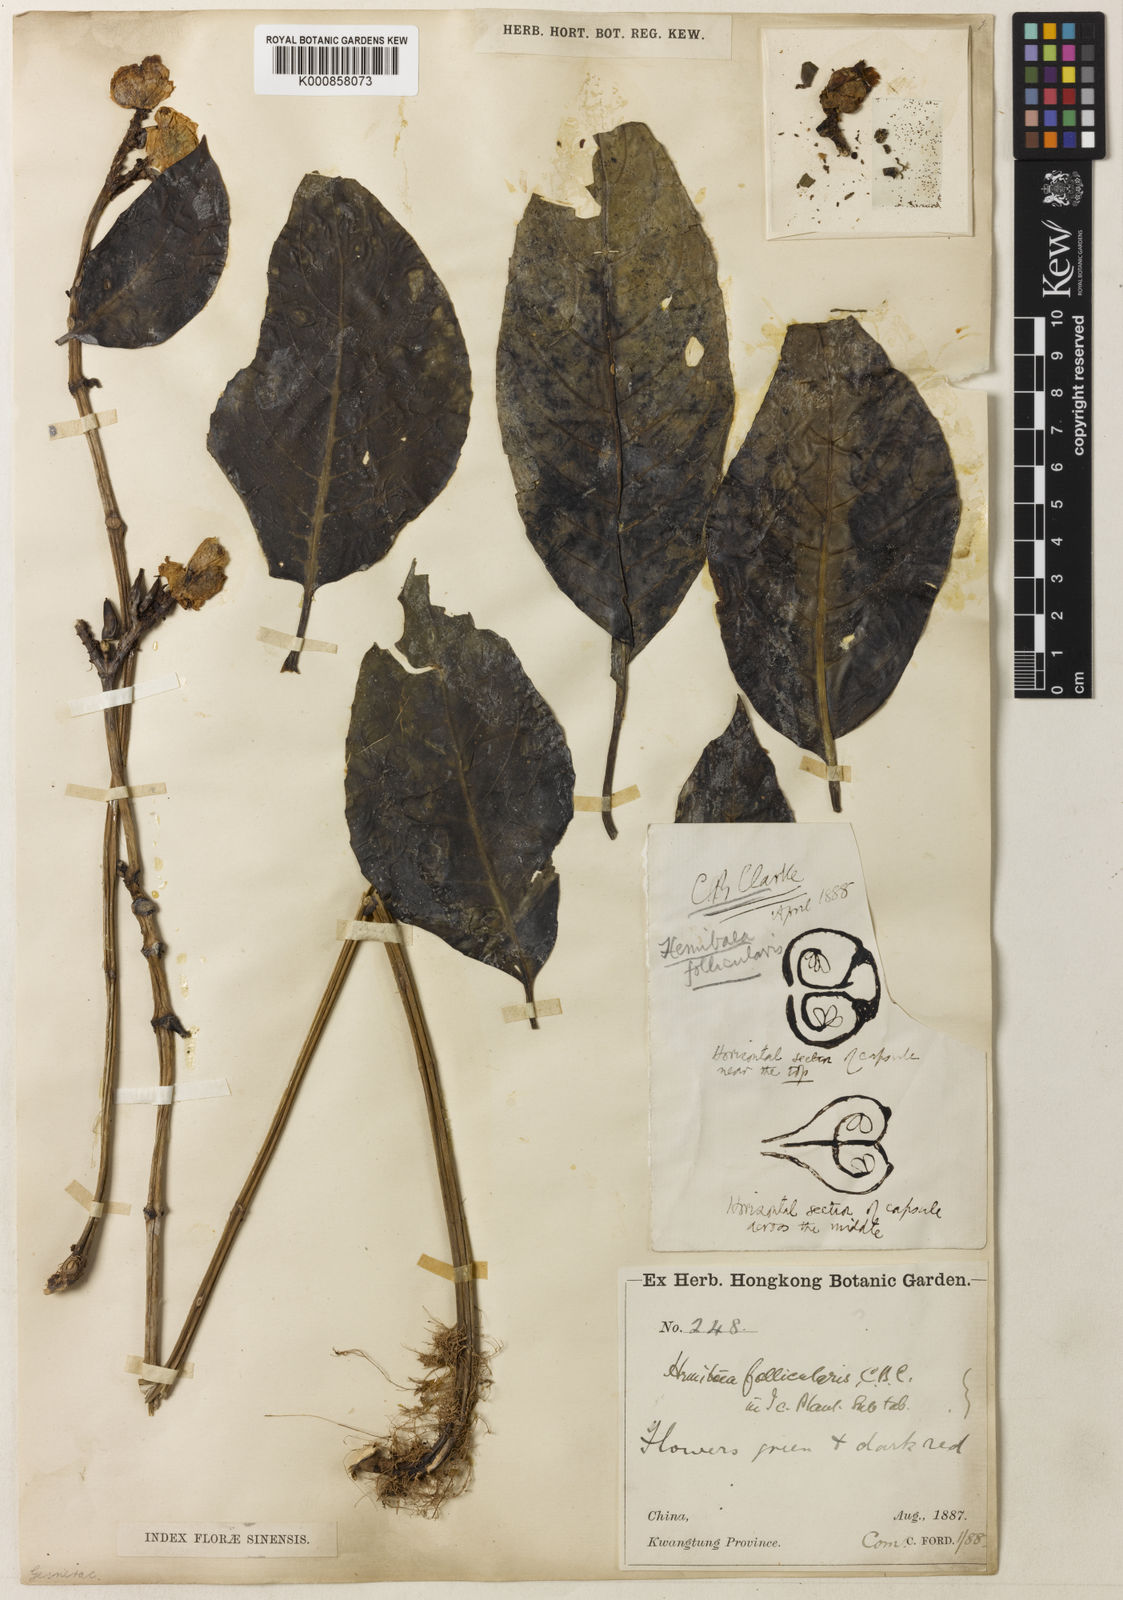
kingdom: Plantae
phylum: Tracheophyta
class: Magnoliopsida
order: Lamiales
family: Gesneriaceae
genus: Hemiboea
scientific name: Hemiboea follicularis
